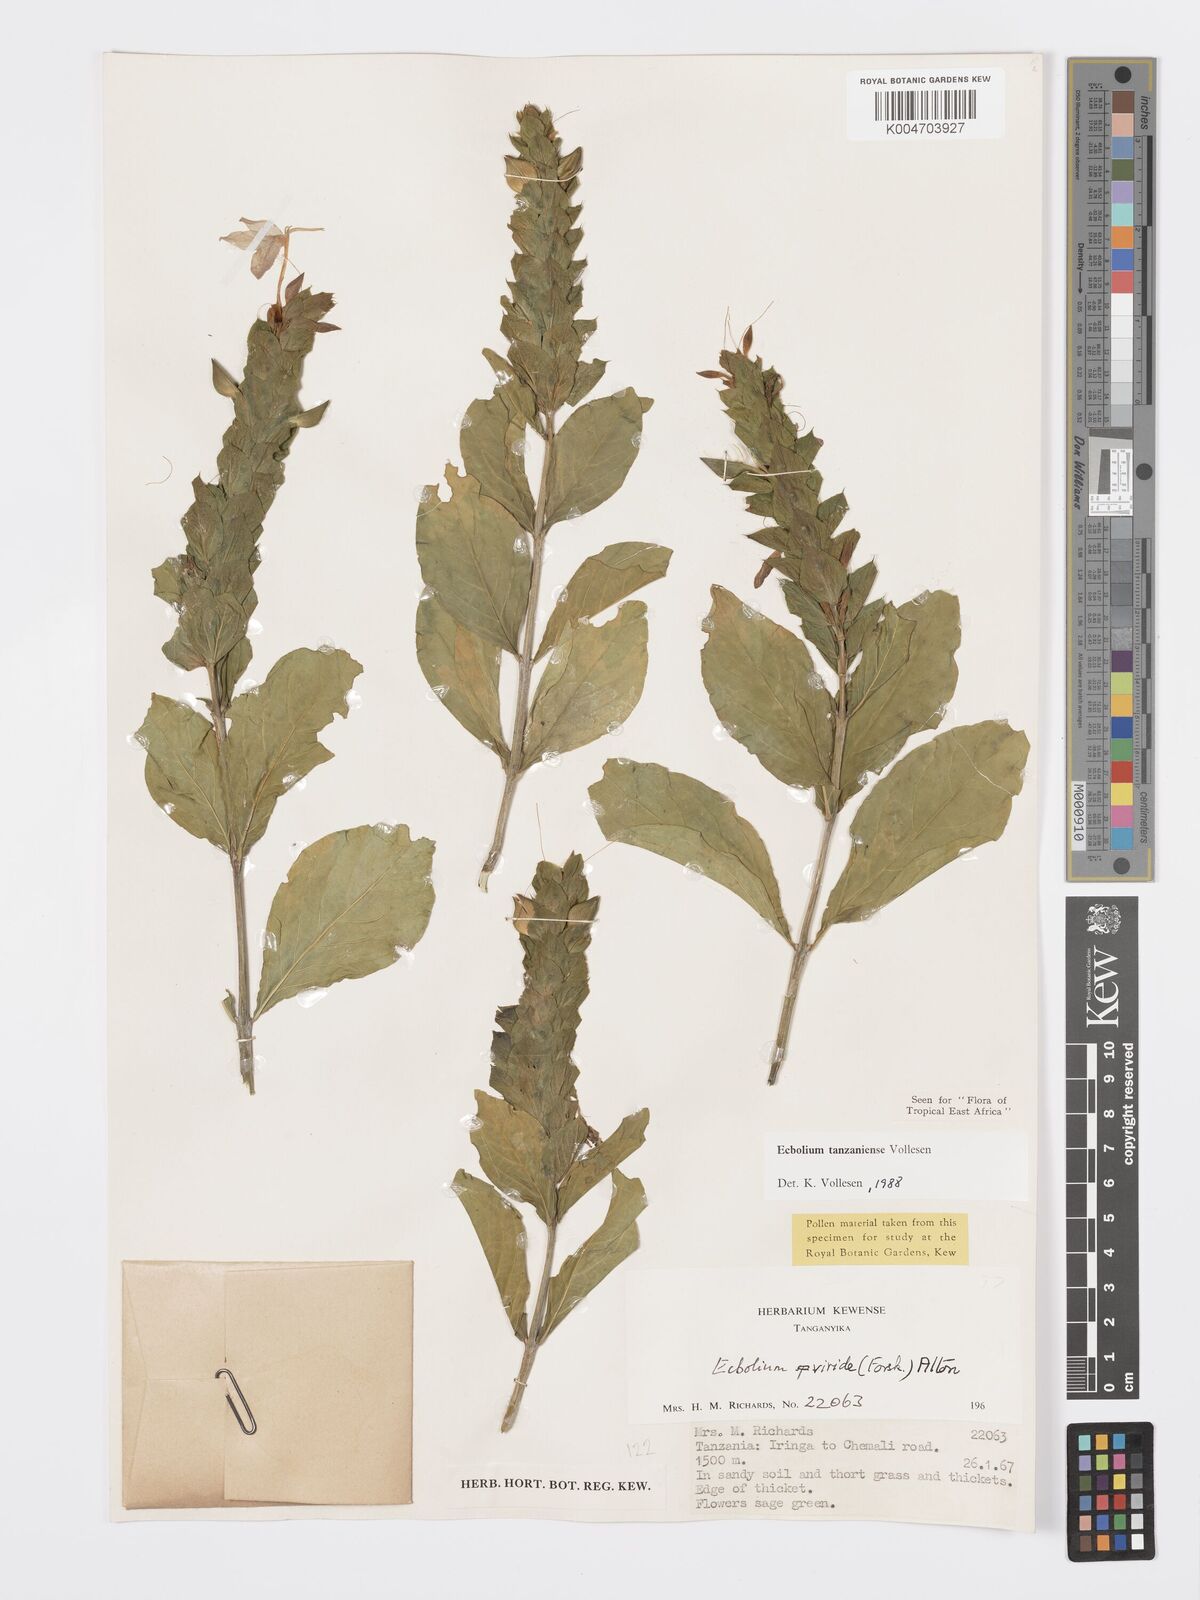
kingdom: Plantae
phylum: Tracheophyta
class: Magnoliopsida
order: Lamiales
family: Acanthaceae
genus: Ecbolium
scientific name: Ecbolium tanzaniense
